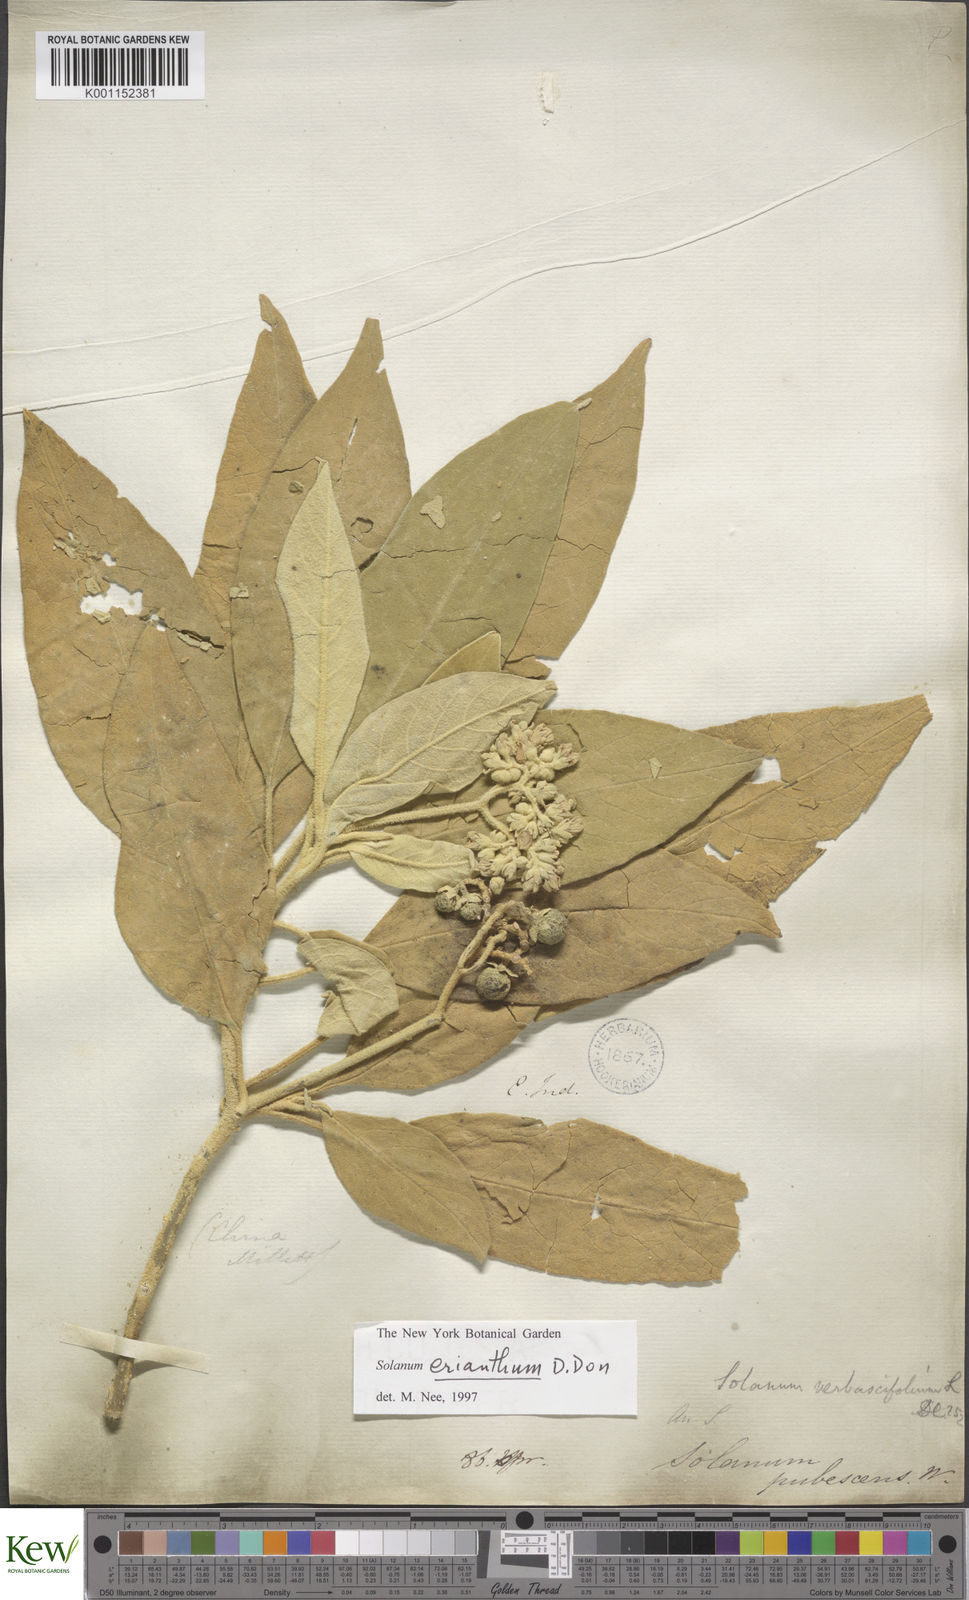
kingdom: Plantae
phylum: Tracheophyta
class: Magnoliopsida
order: Solanales
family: Solanaceae
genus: Solanum
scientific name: Solanum donianum
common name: Mullein nightshade
